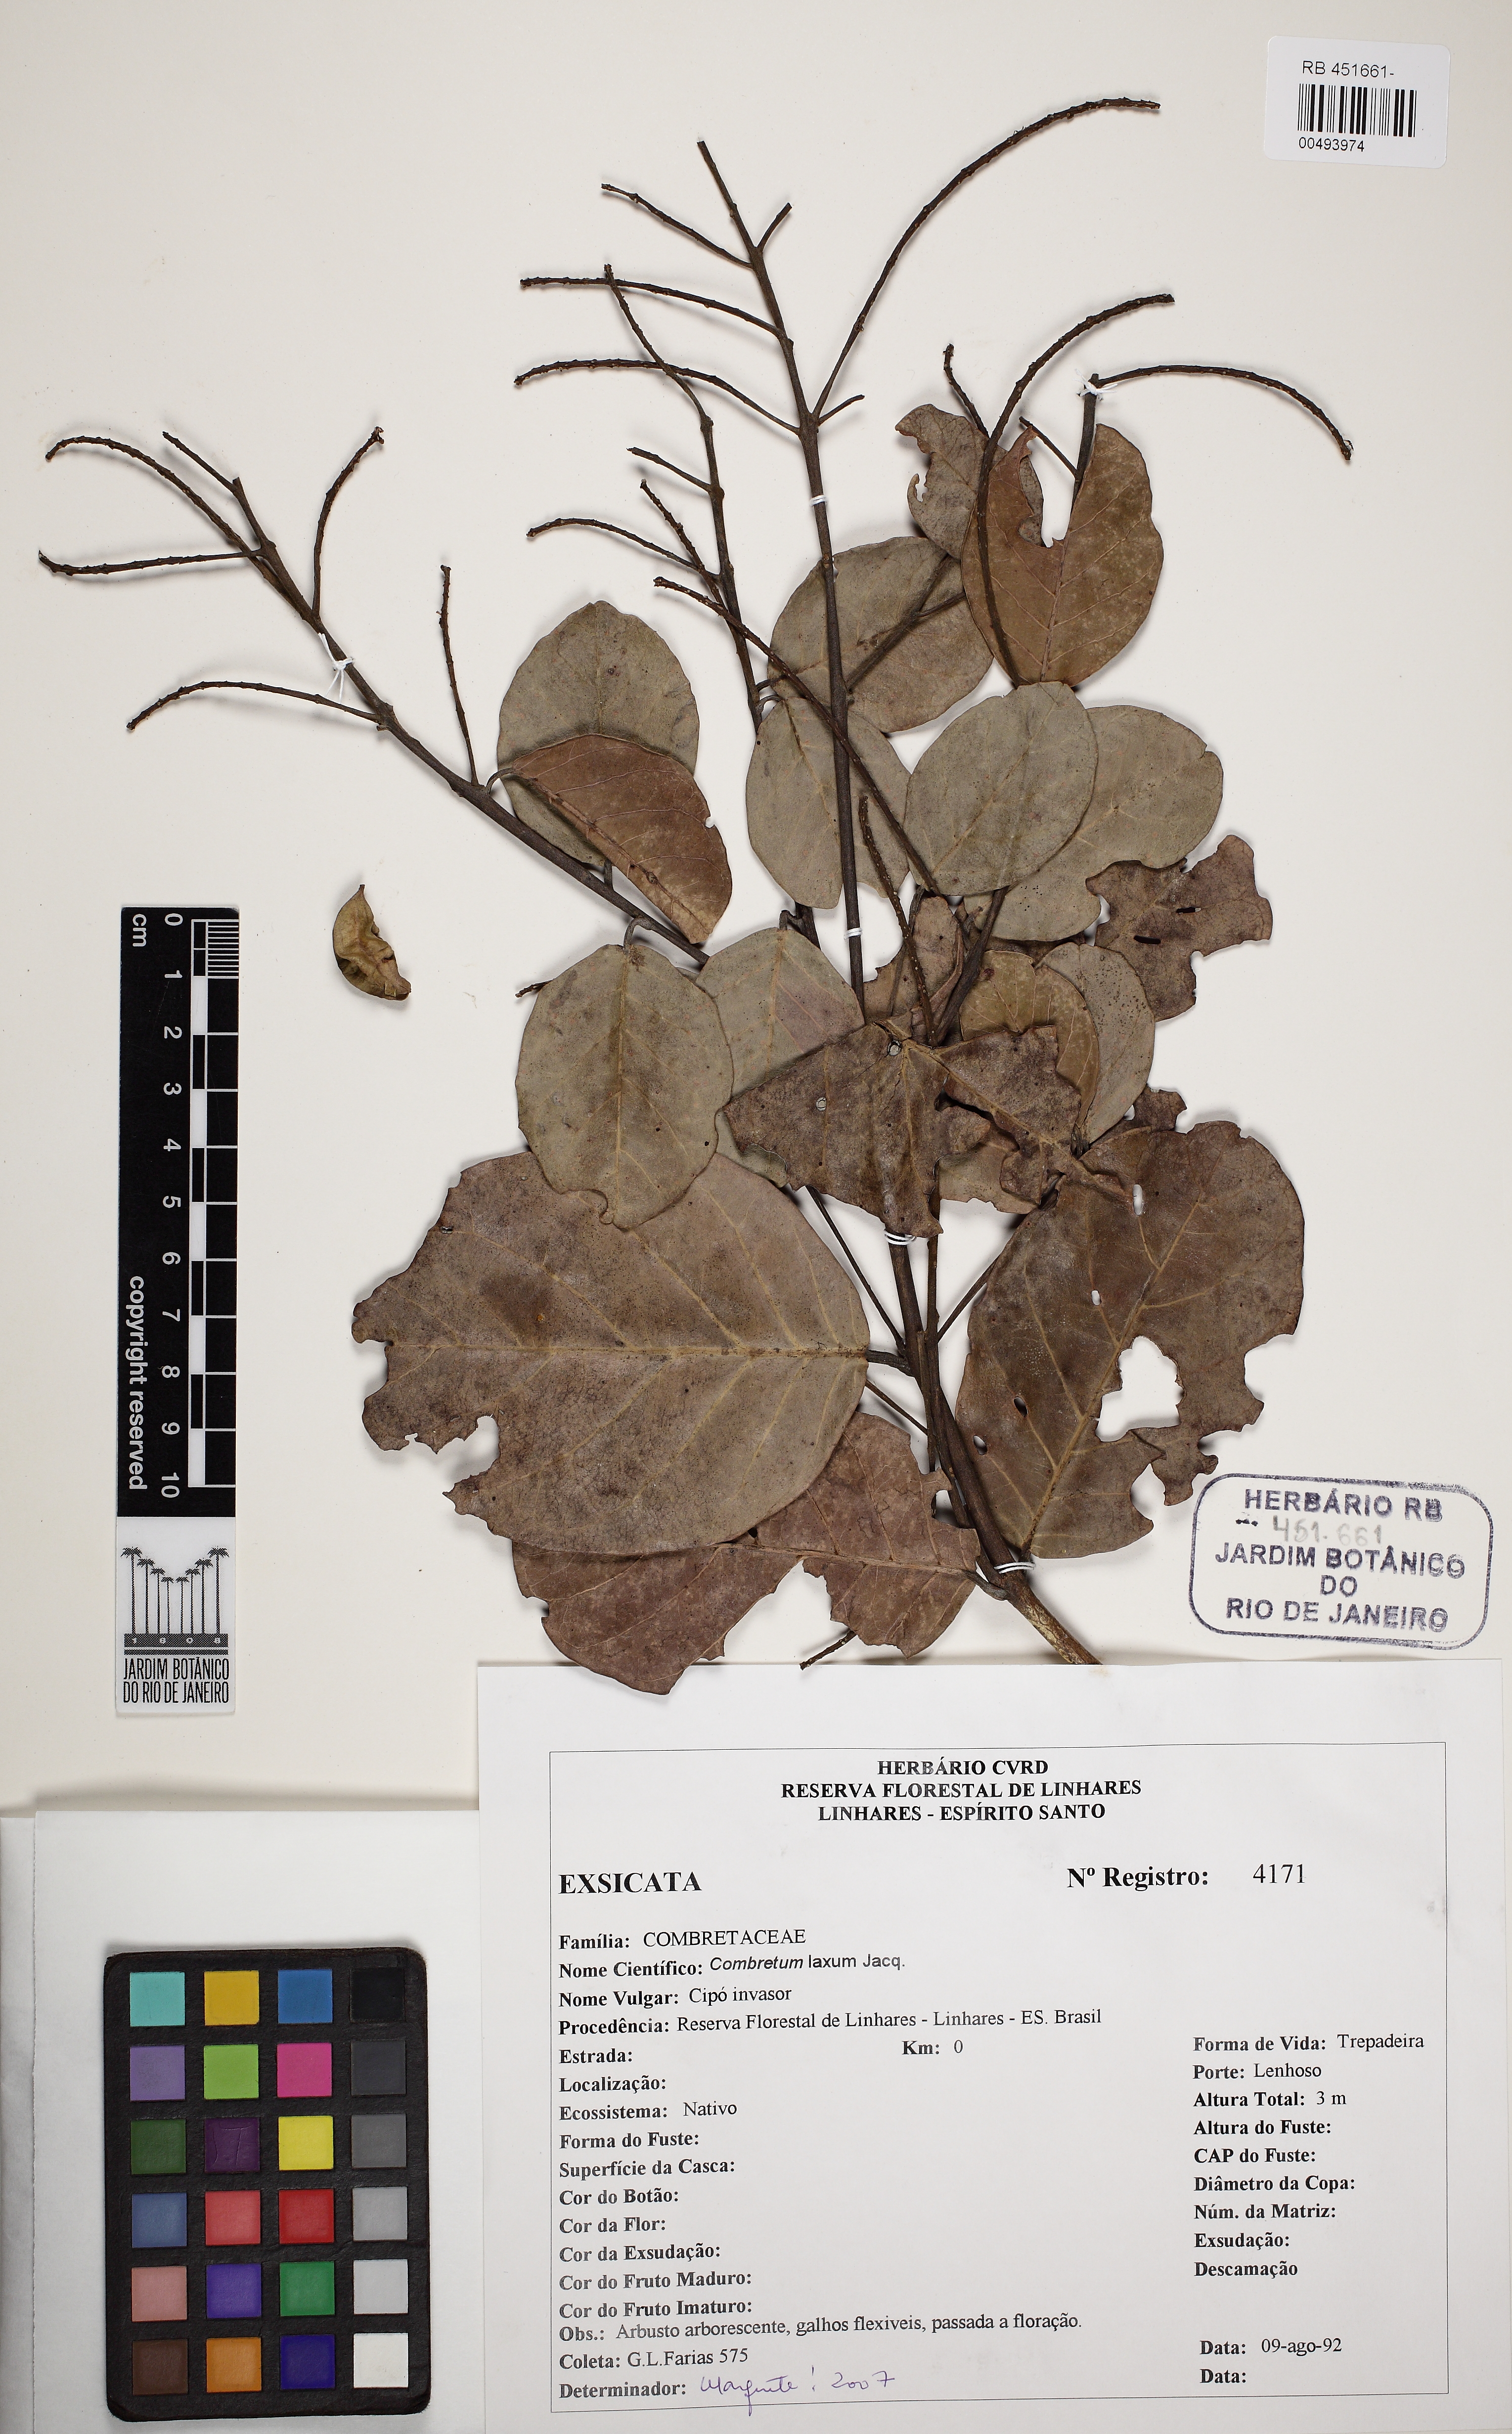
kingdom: Plantae
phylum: Tracheophyta
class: Magnoliopsida
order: Myrtales
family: Combretaceae
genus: Combretum
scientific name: Combretum laxum
